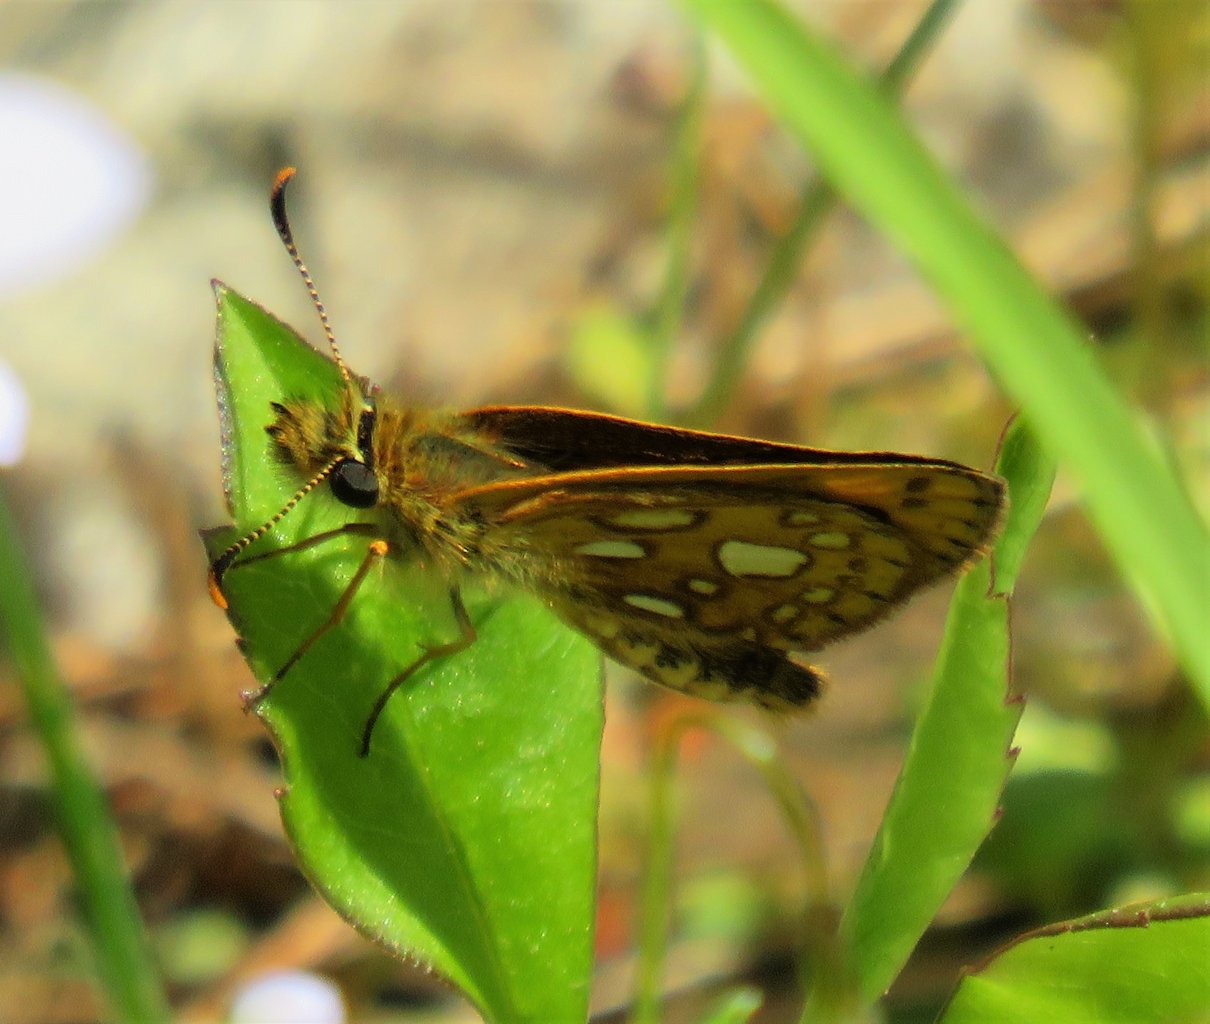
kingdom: Animalia
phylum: Arthropoda
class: Insecta
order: Lepidoptera
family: Hesperiidae
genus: Carterocephalus
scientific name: Carterocephalus palaemon
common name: Chequered Skipper
